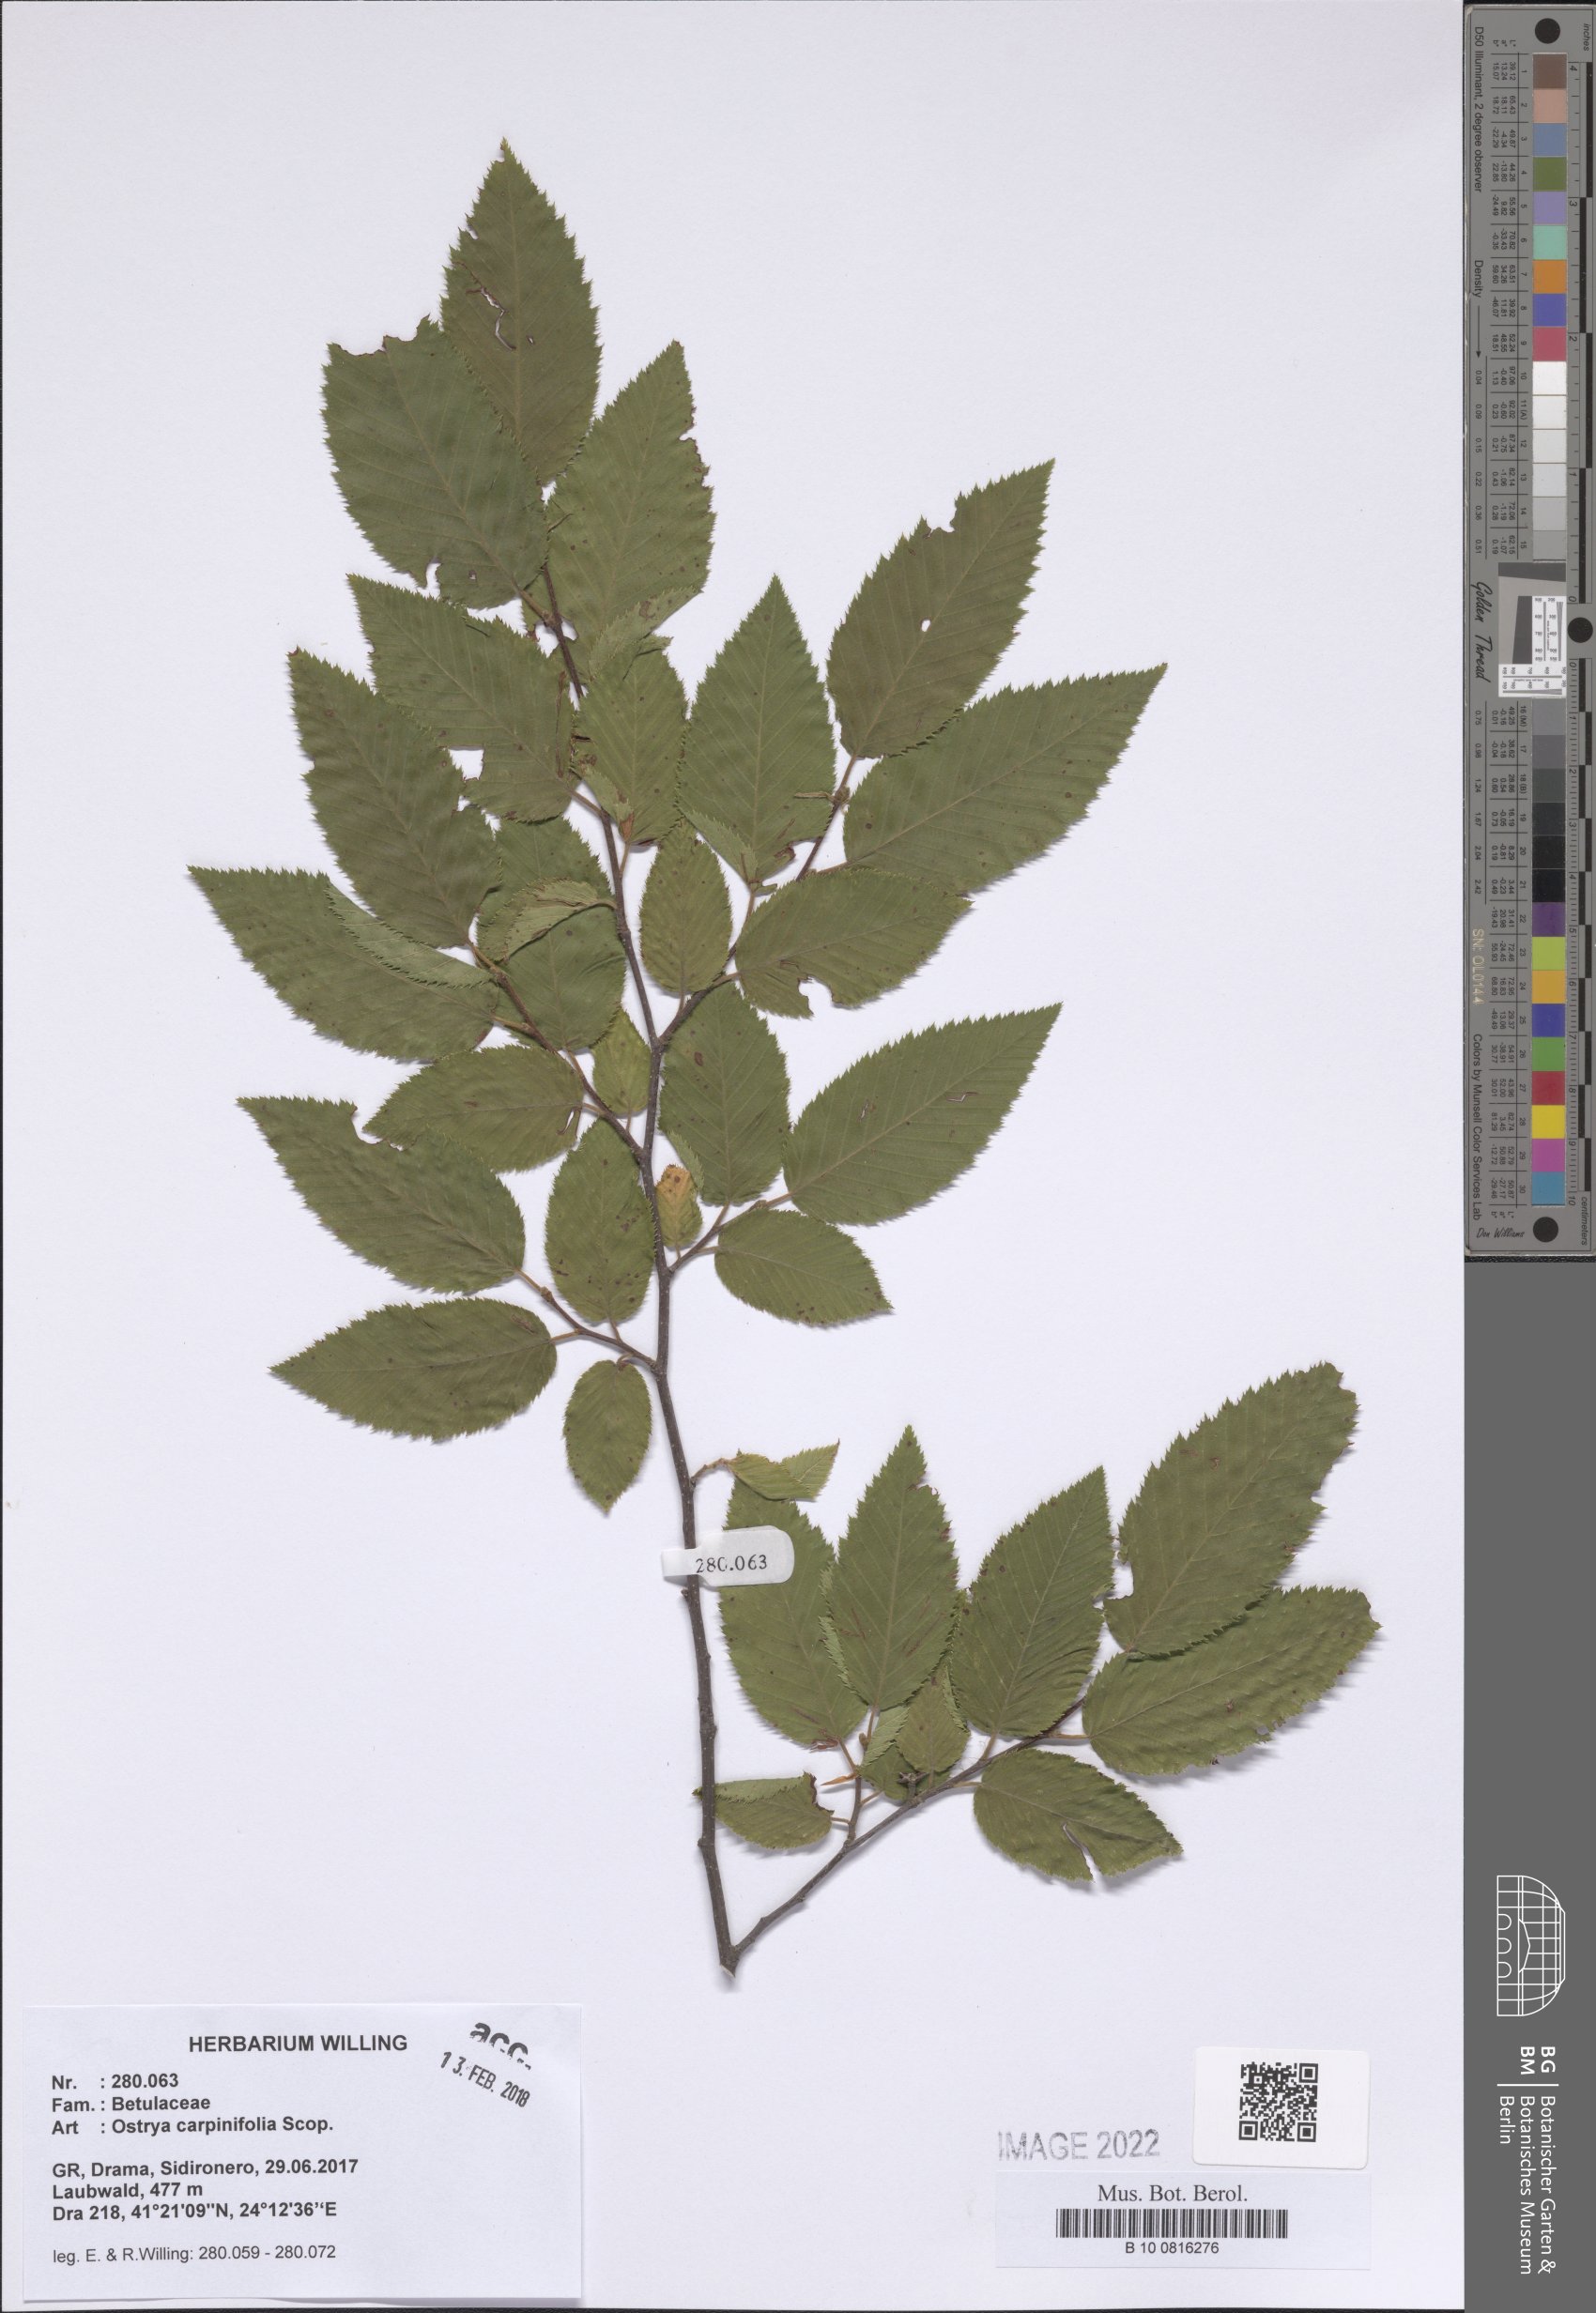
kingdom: Plantae
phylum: Tracheophyta
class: Magnoliopsida
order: Fagales
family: Betulaceae
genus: Ostrya
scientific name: Ostrya carpinifolia
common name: European hop-hornbeam
